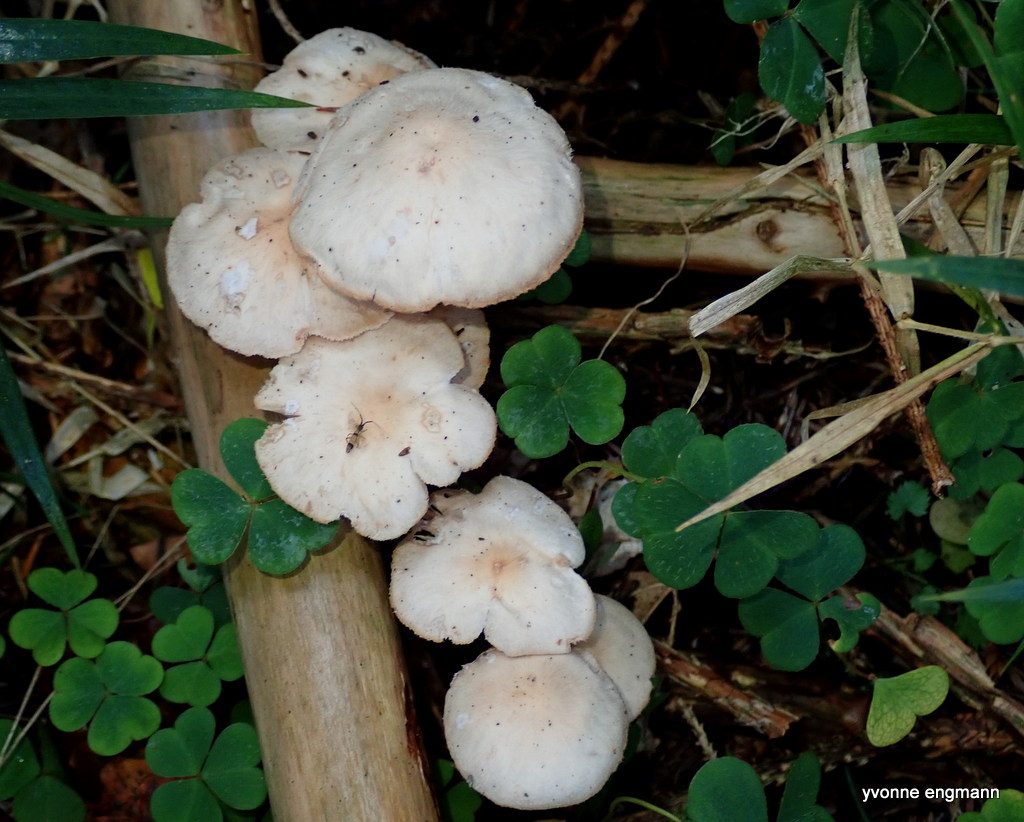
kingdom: Fungi
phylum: Basidiomycota
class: Agaricomycetes
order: Agaricales
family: Omphalotaceae
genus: Collybiopsis
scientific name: Collybiopsis confluens
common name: knippe-fladhat
